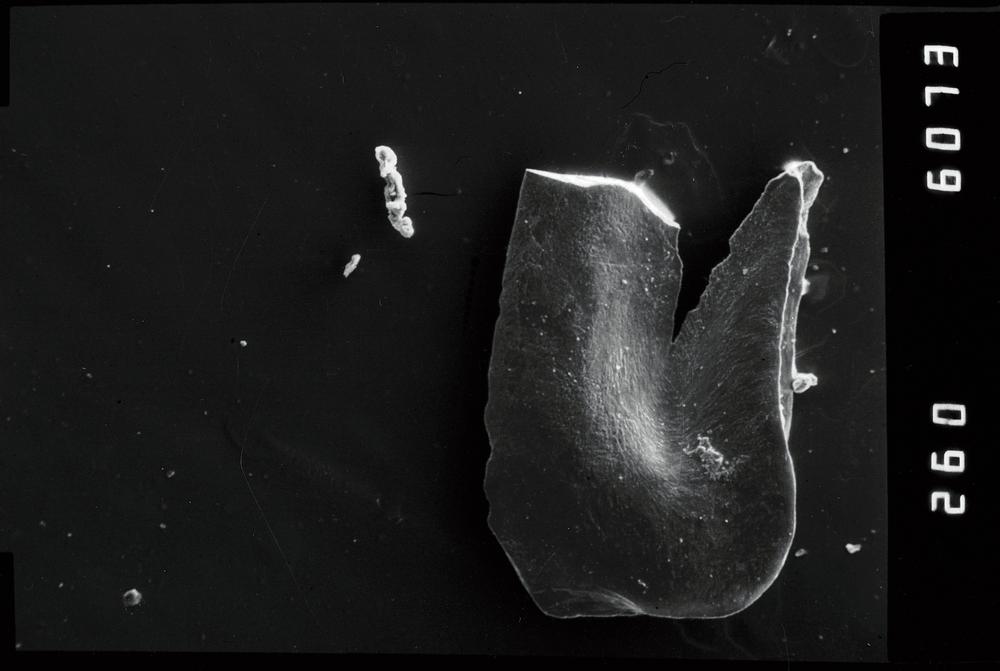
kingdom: Animalia
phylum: Chordata
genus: Paroistodus
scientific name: Paroistodus Drepanodus proteus
